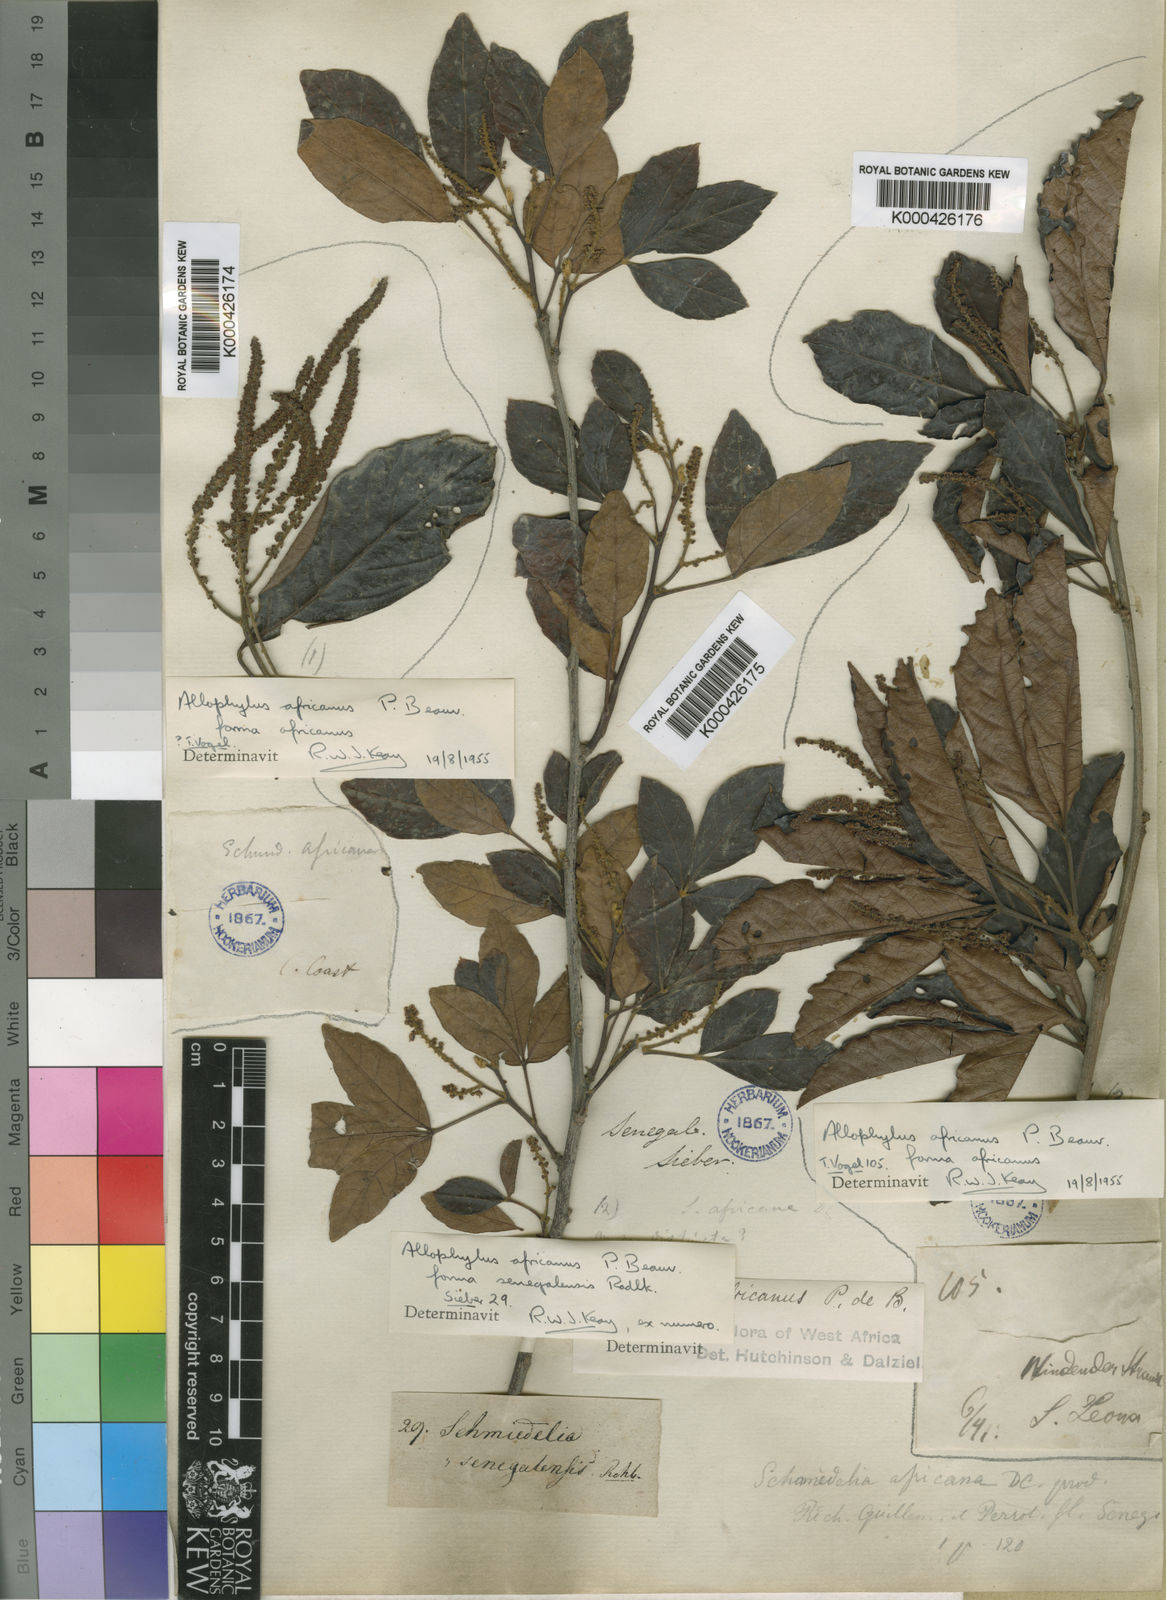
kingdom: Plantae
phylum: Tracheophyta
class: Magnoliopsida
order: Sapindales
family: Sapindaceae
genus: Allophylus
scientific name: Allophylus africanus
